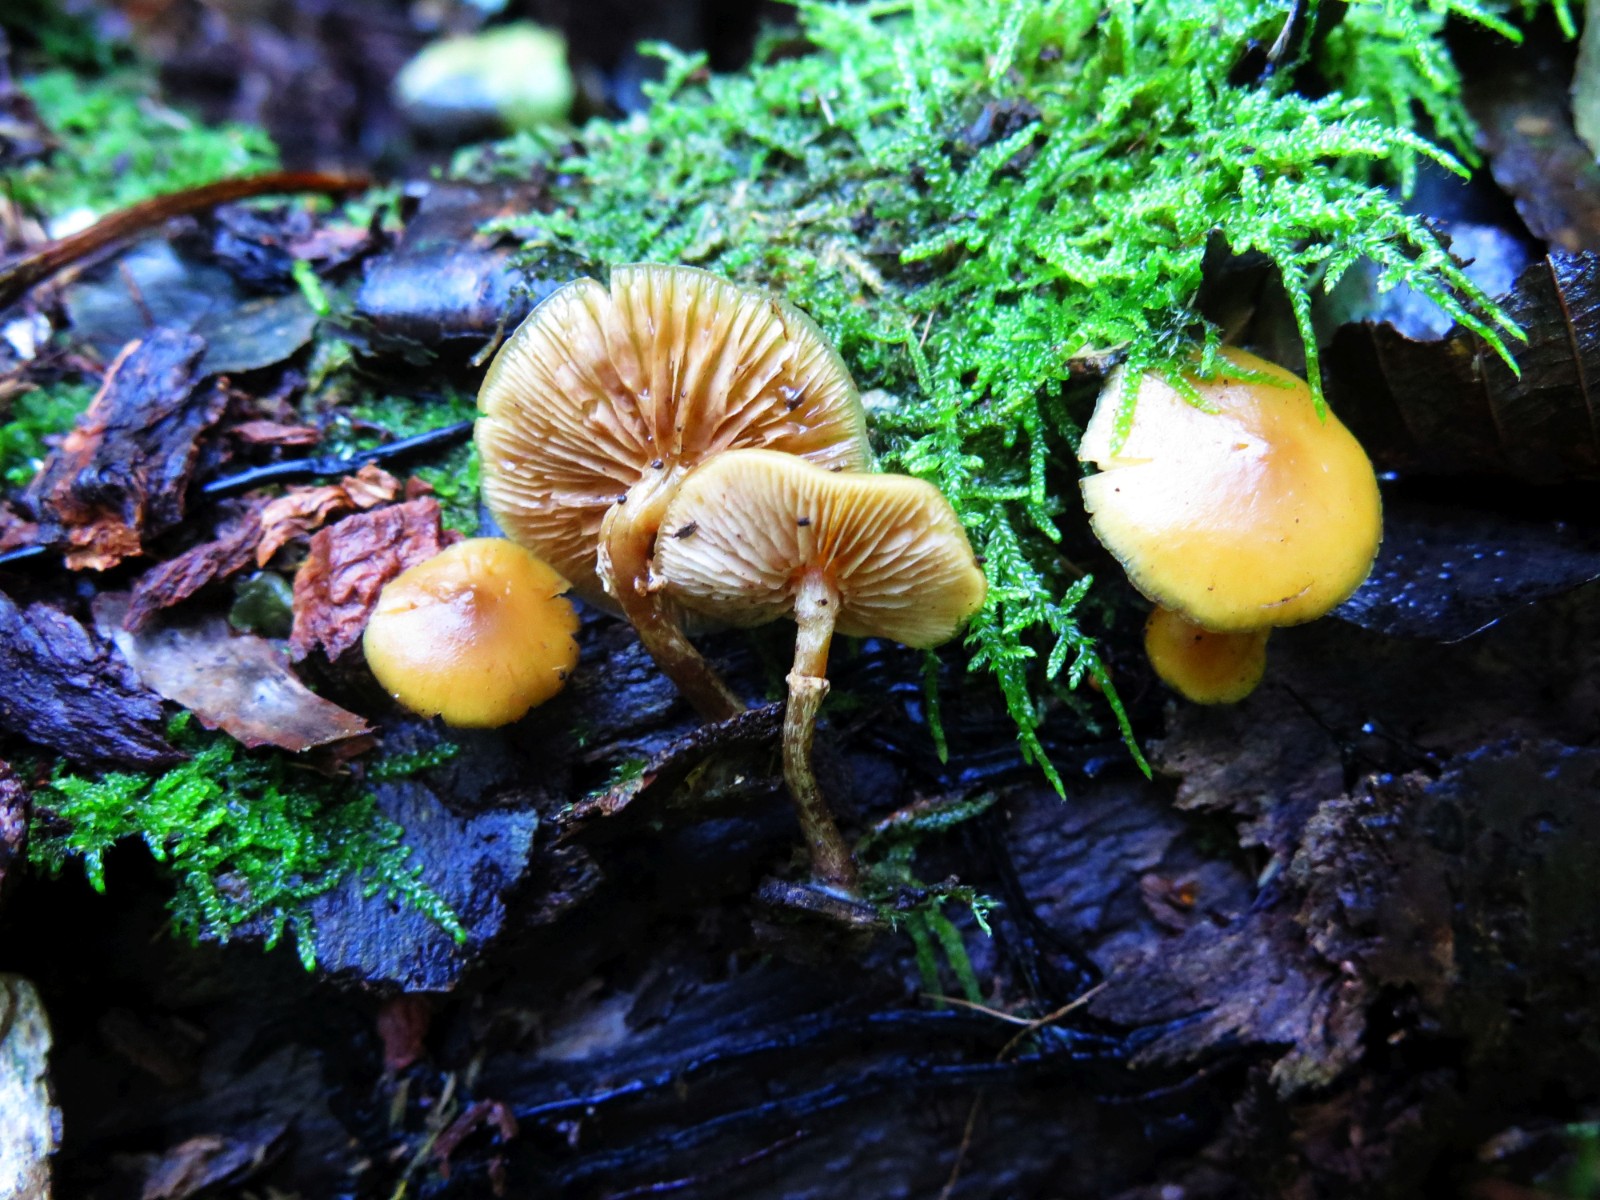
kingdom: Fungi
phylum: Basidiomycota
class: Agaricomycetes
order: Agaricales
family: Hymenogastraceae
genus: Galerina
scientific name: Galerina marginata
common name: randbæltet hjelmhat
